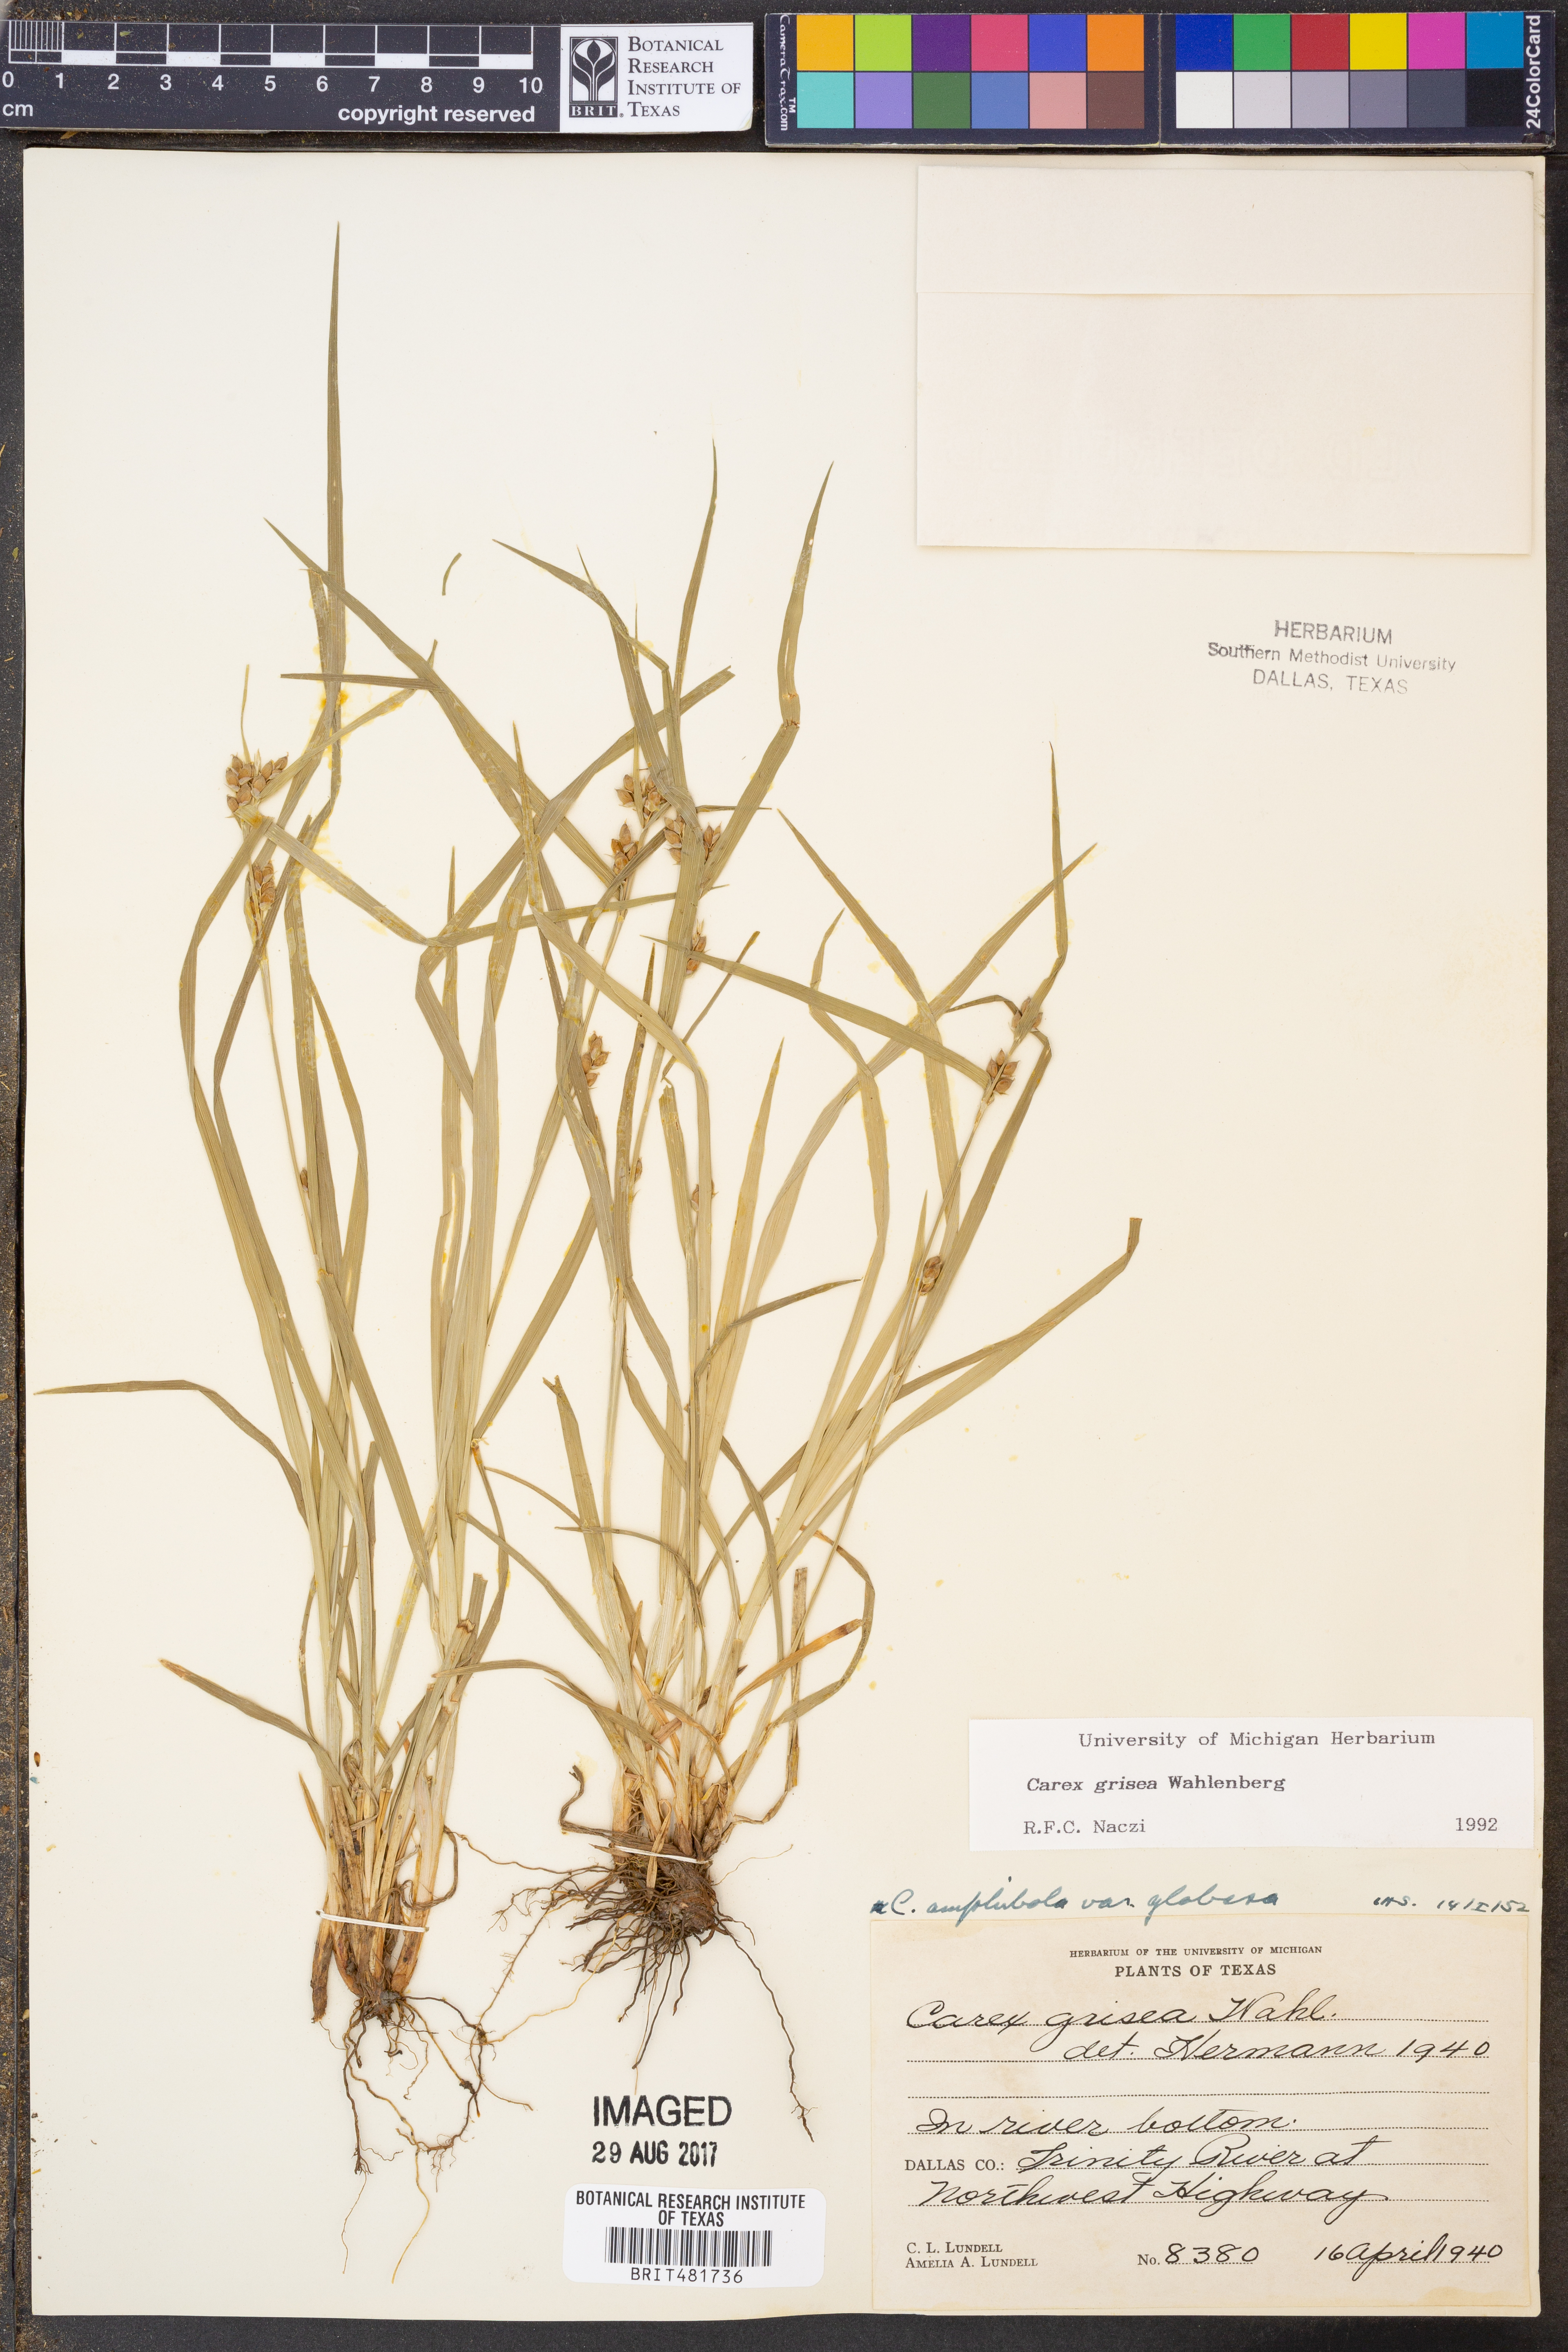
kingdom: Plantae
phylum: Tracheophyta
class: Liliopsida
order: Poales
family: Cyperaceae
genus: Carex
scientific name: Carex grisea
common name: Eastern narrow-leaved sedge
